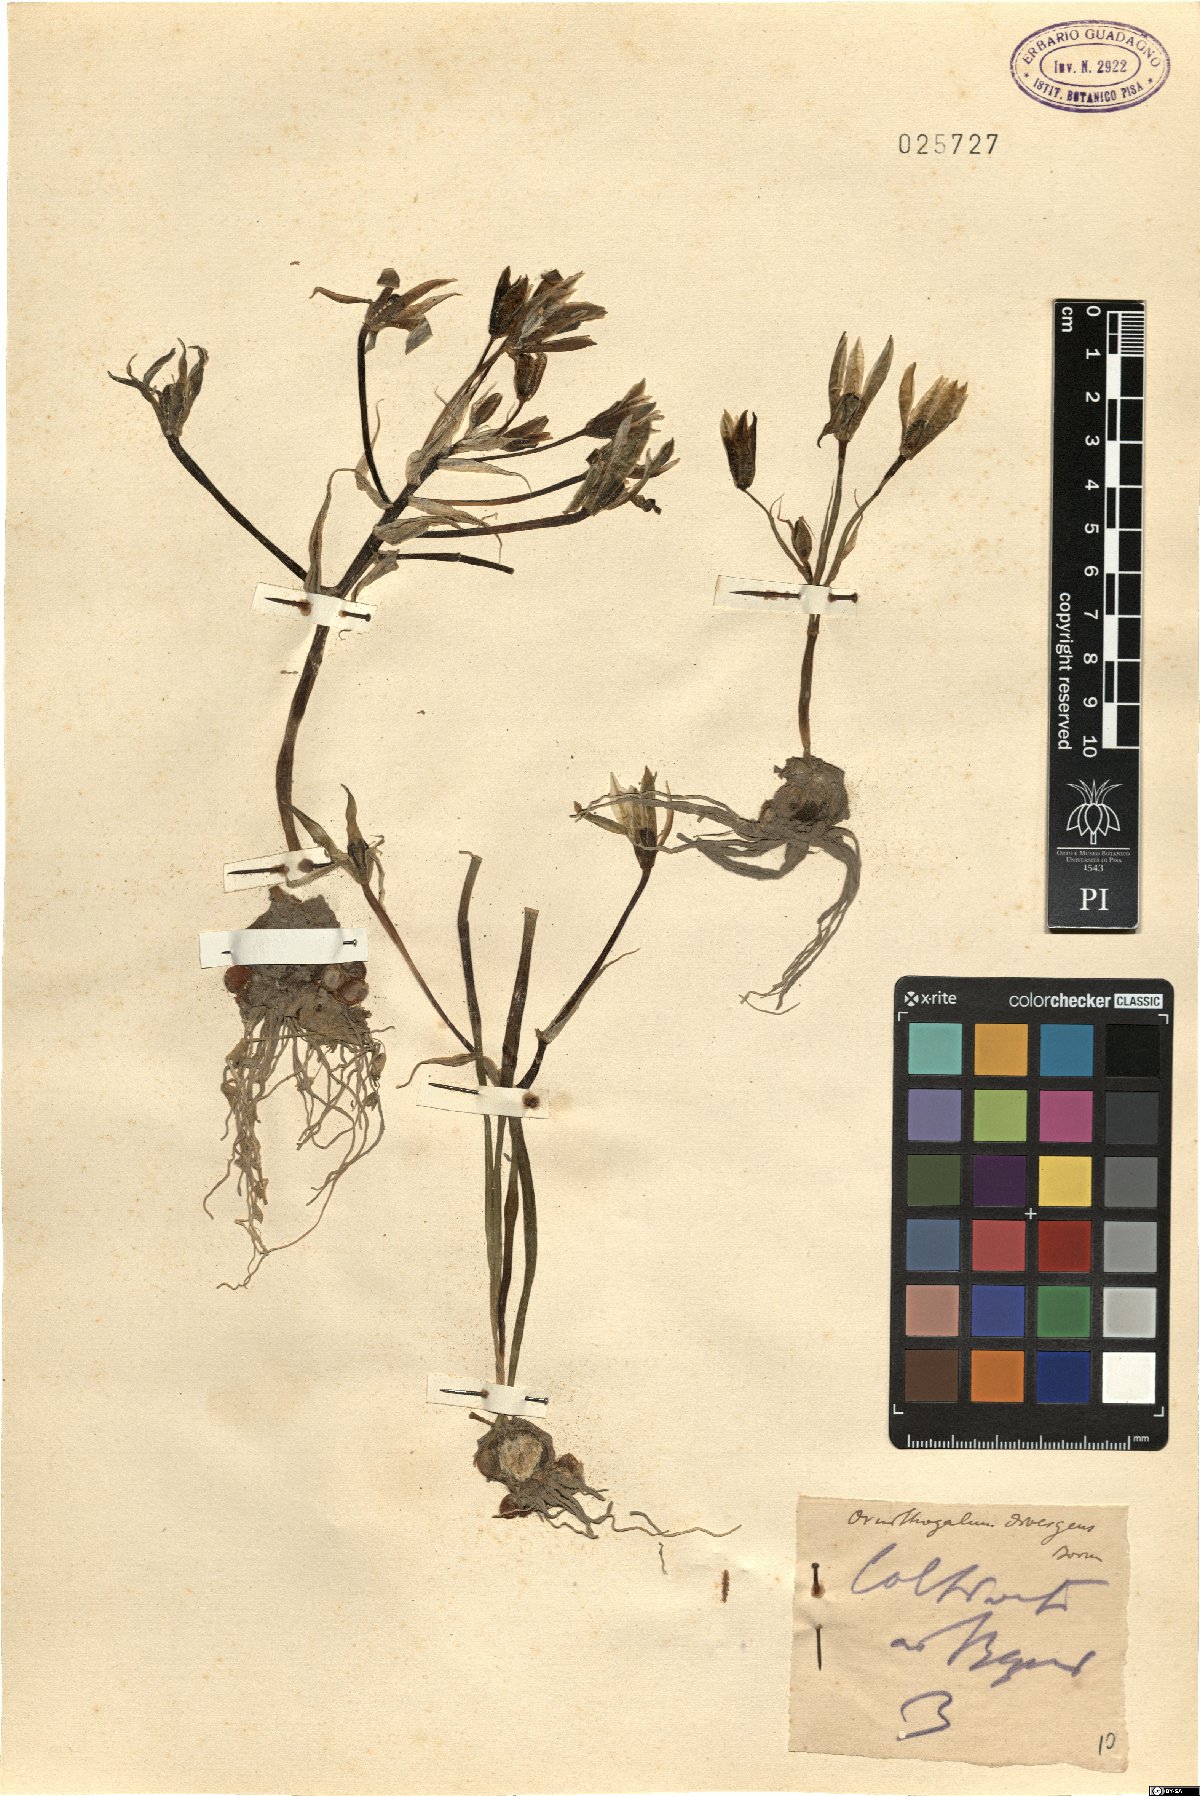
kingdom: Plantae
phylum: Tracheophyta
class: Liliopsida
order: Asparagales
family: Asparagaceae
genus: Ornithogalum
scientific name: Ornithogalum divergens
